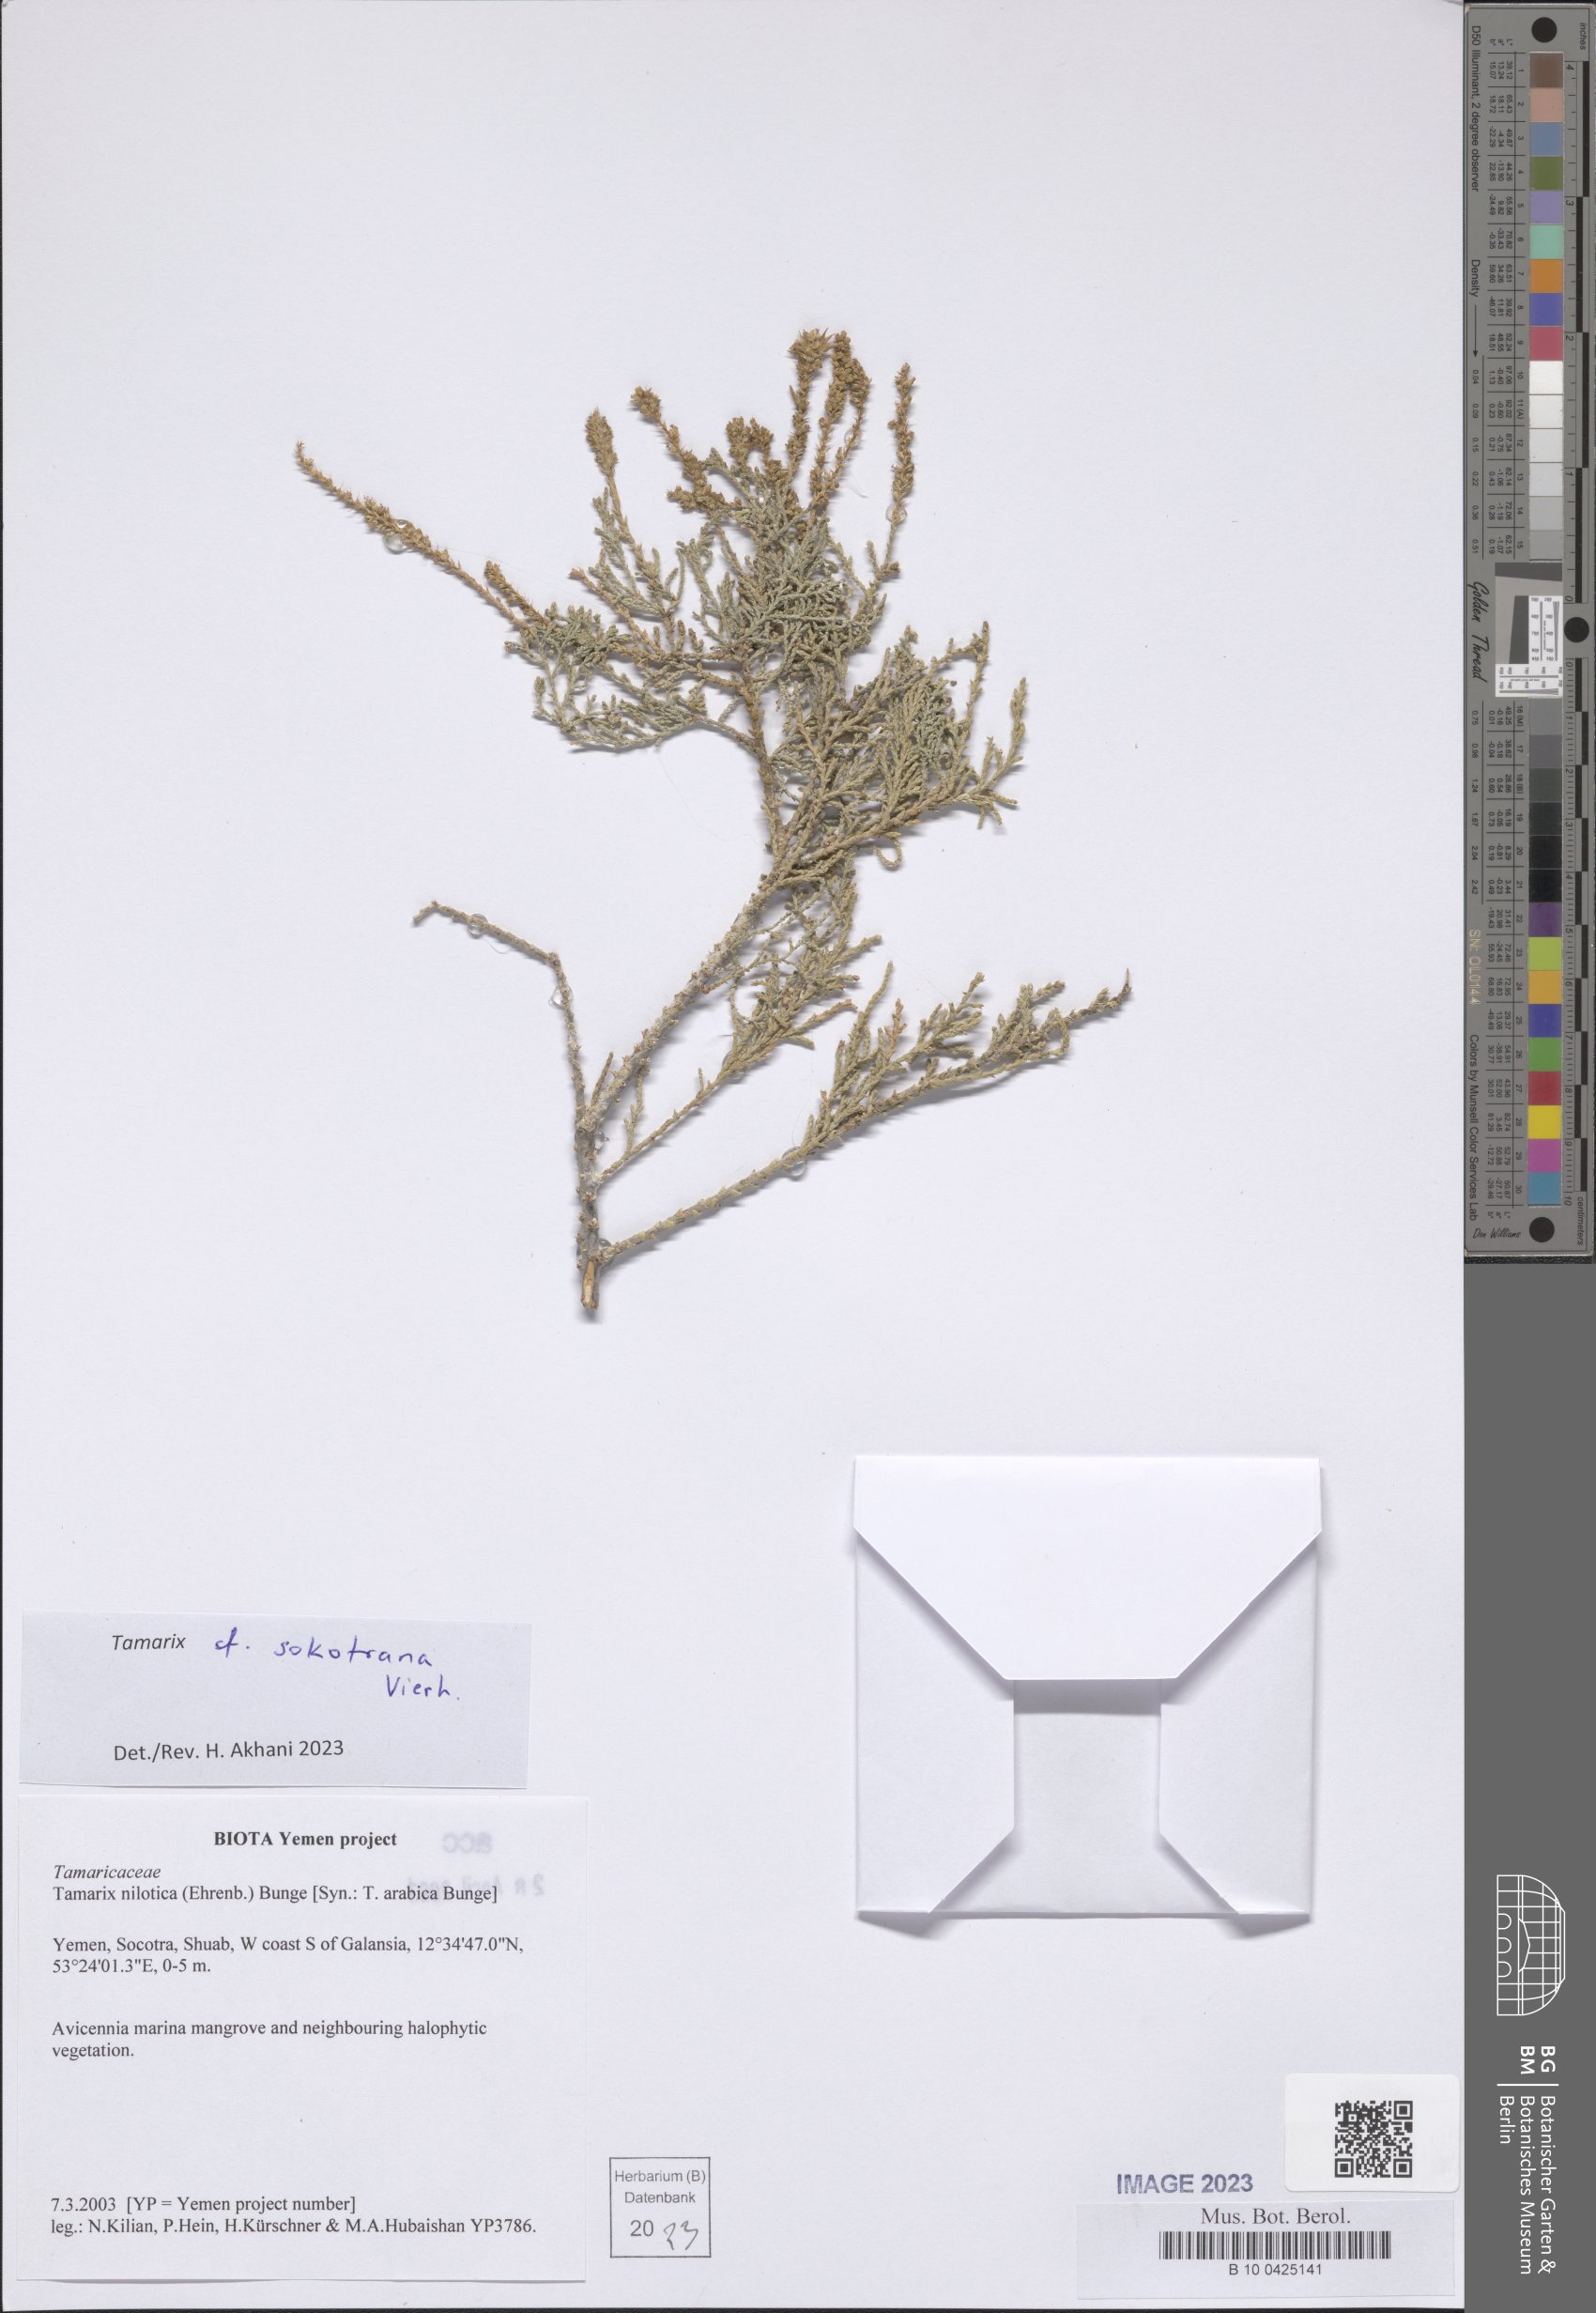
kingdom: Plantae
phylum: Tracheophyta
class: Magnoliopsida
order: Caryophyllales
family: Tamaricaceae
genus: Tamarix
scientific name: Tamarix nilotica
